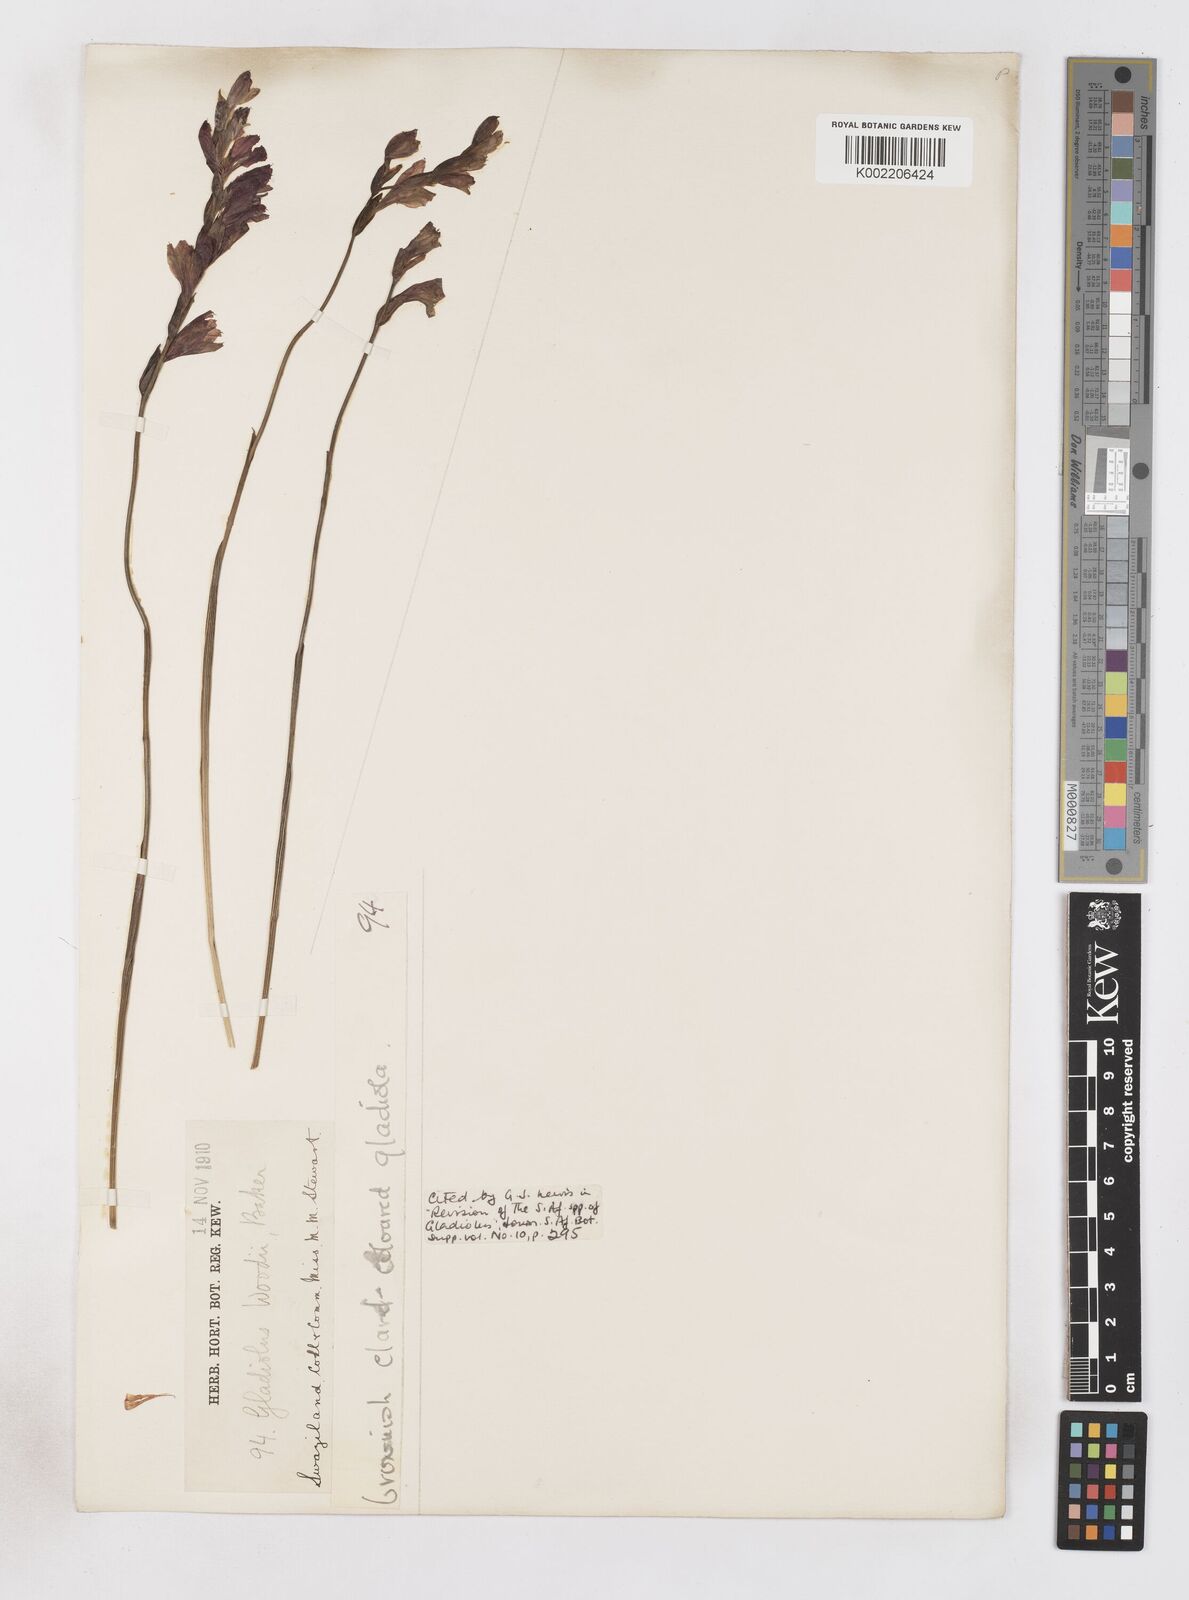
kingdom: Plantae
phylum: Tracheophyta
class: Liliopsida
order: Asparagales
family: Iridaceae
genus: Gladiolus
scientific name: Gladiolus woodii
